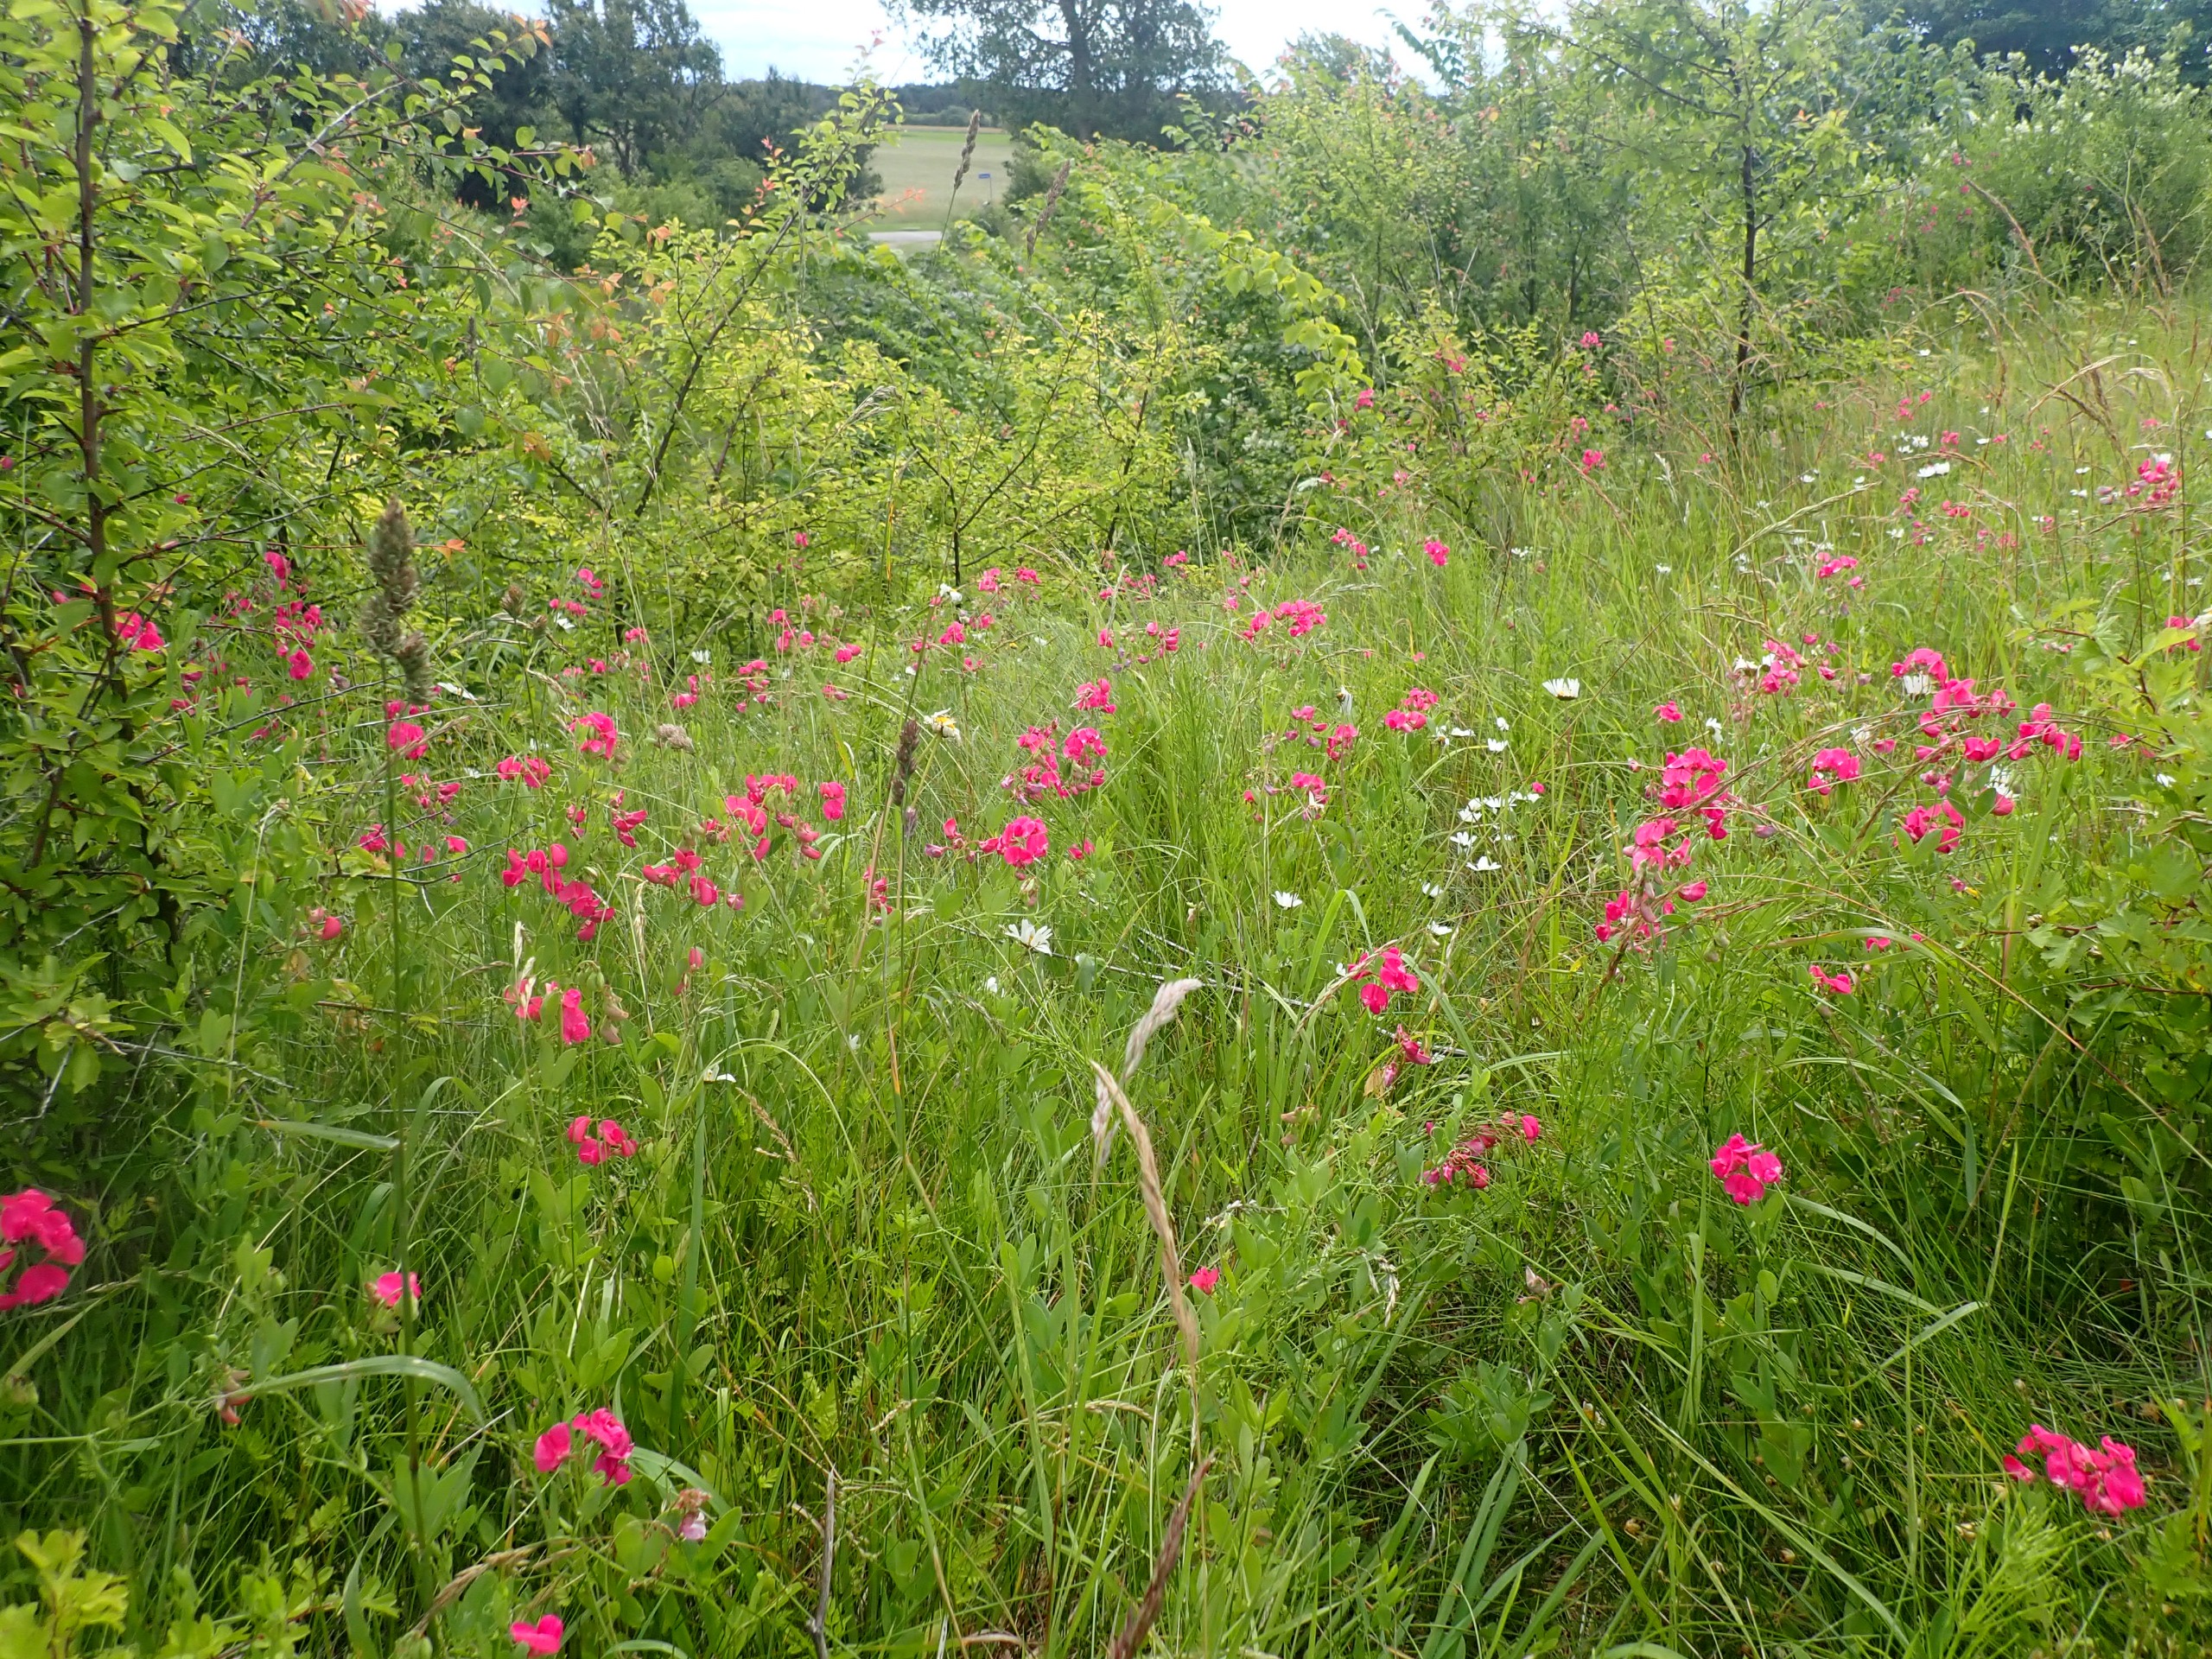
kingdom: Plantae
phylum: Tracheophyta
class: Magnoliopsida
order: Fabales
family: Fabaceae
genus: Lathyrus
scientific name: Lathyrus tuberosus
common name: Knold-fladbælg
